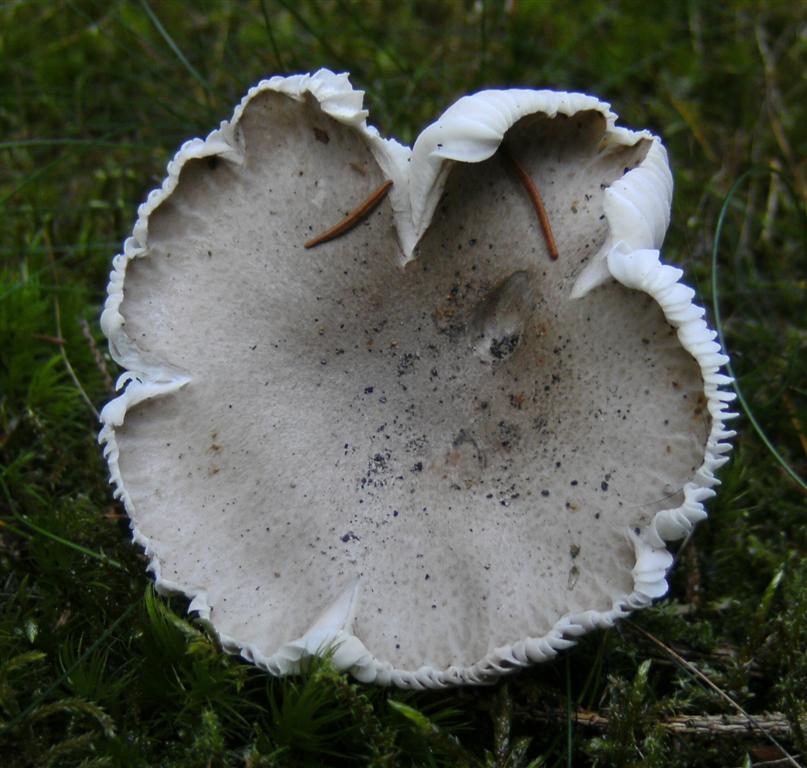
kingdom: Fungi
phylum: Basidiomycota
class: Agaricomycetes
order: Agaricales
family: Hygrophoraceae
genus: Hygrophorus
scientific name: Hygrophorus agathosmus
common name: vellugtende sneglehat
